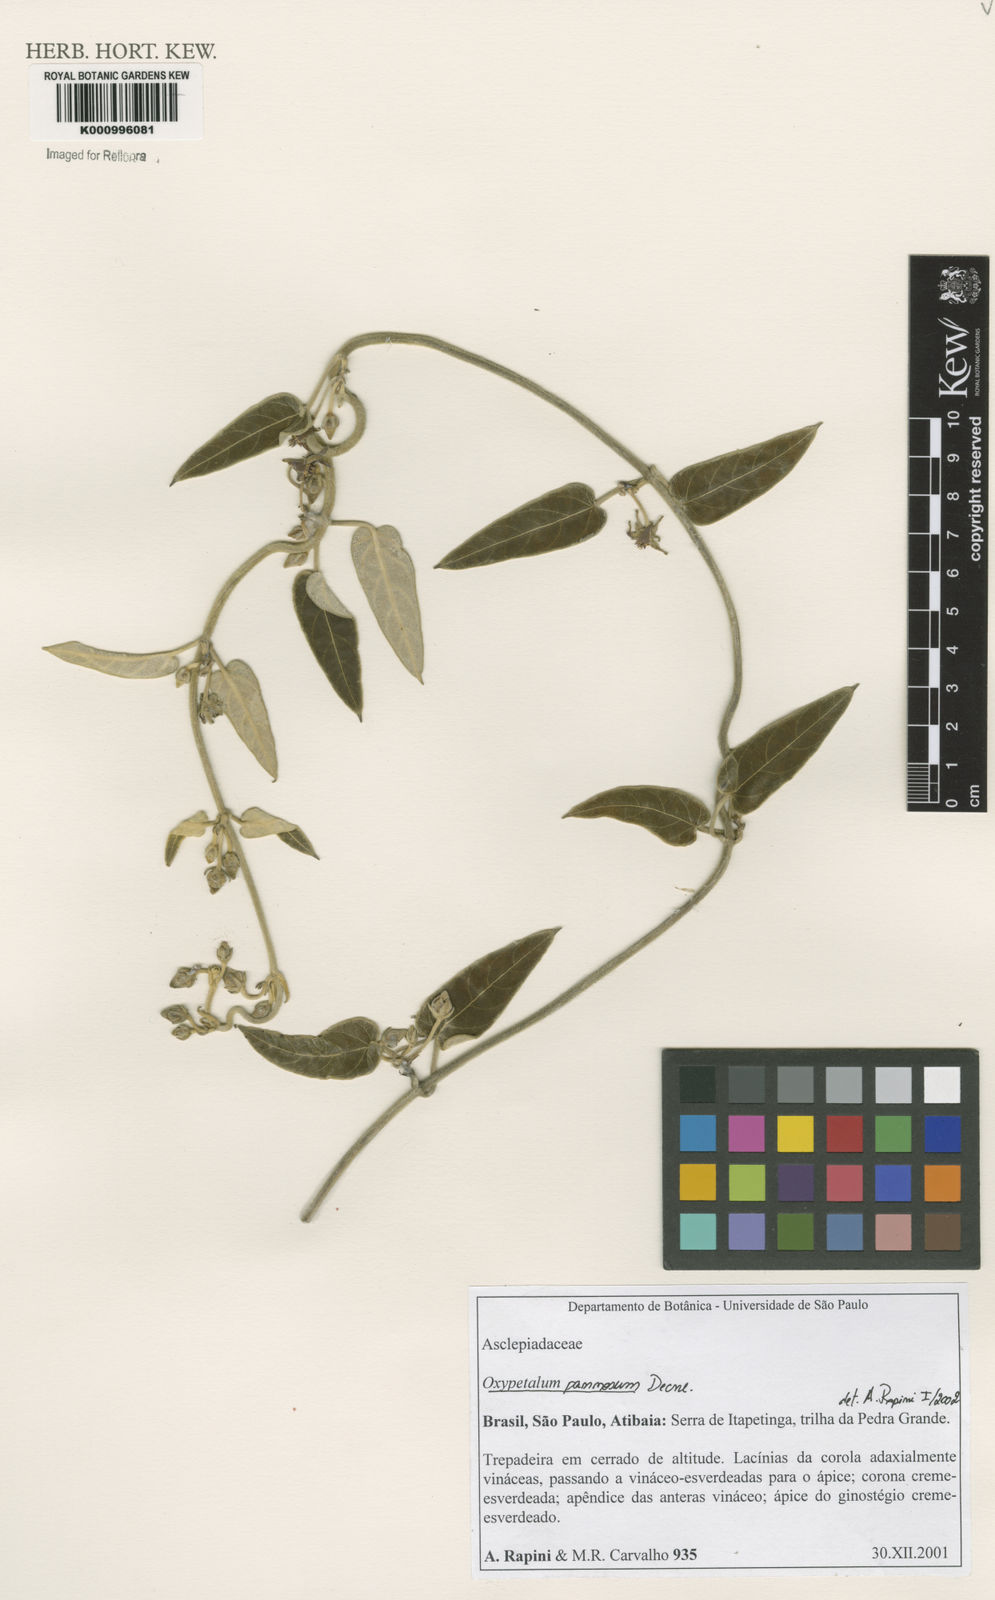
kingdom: Plantae
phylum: Tracheophyta
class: Magnoliopsida
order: Gentianales
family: Apocynaceae
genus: Oxypetalum
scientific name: Oxypetalum pannosum
